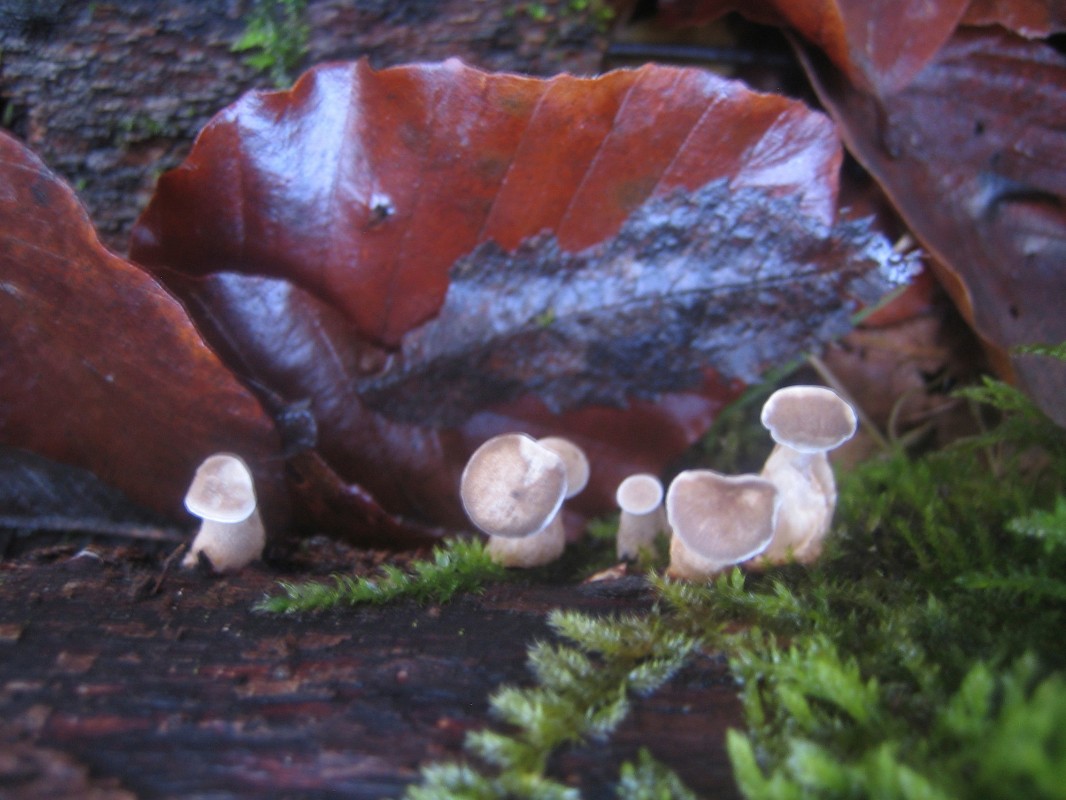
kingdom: Fungi
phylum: Basidiomycota
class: Agaricomycetes
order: Polyporales
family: Polyporaceae
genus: Lentinus
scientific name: Lentinus brumalis
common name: vinter-stilkporesvamp
